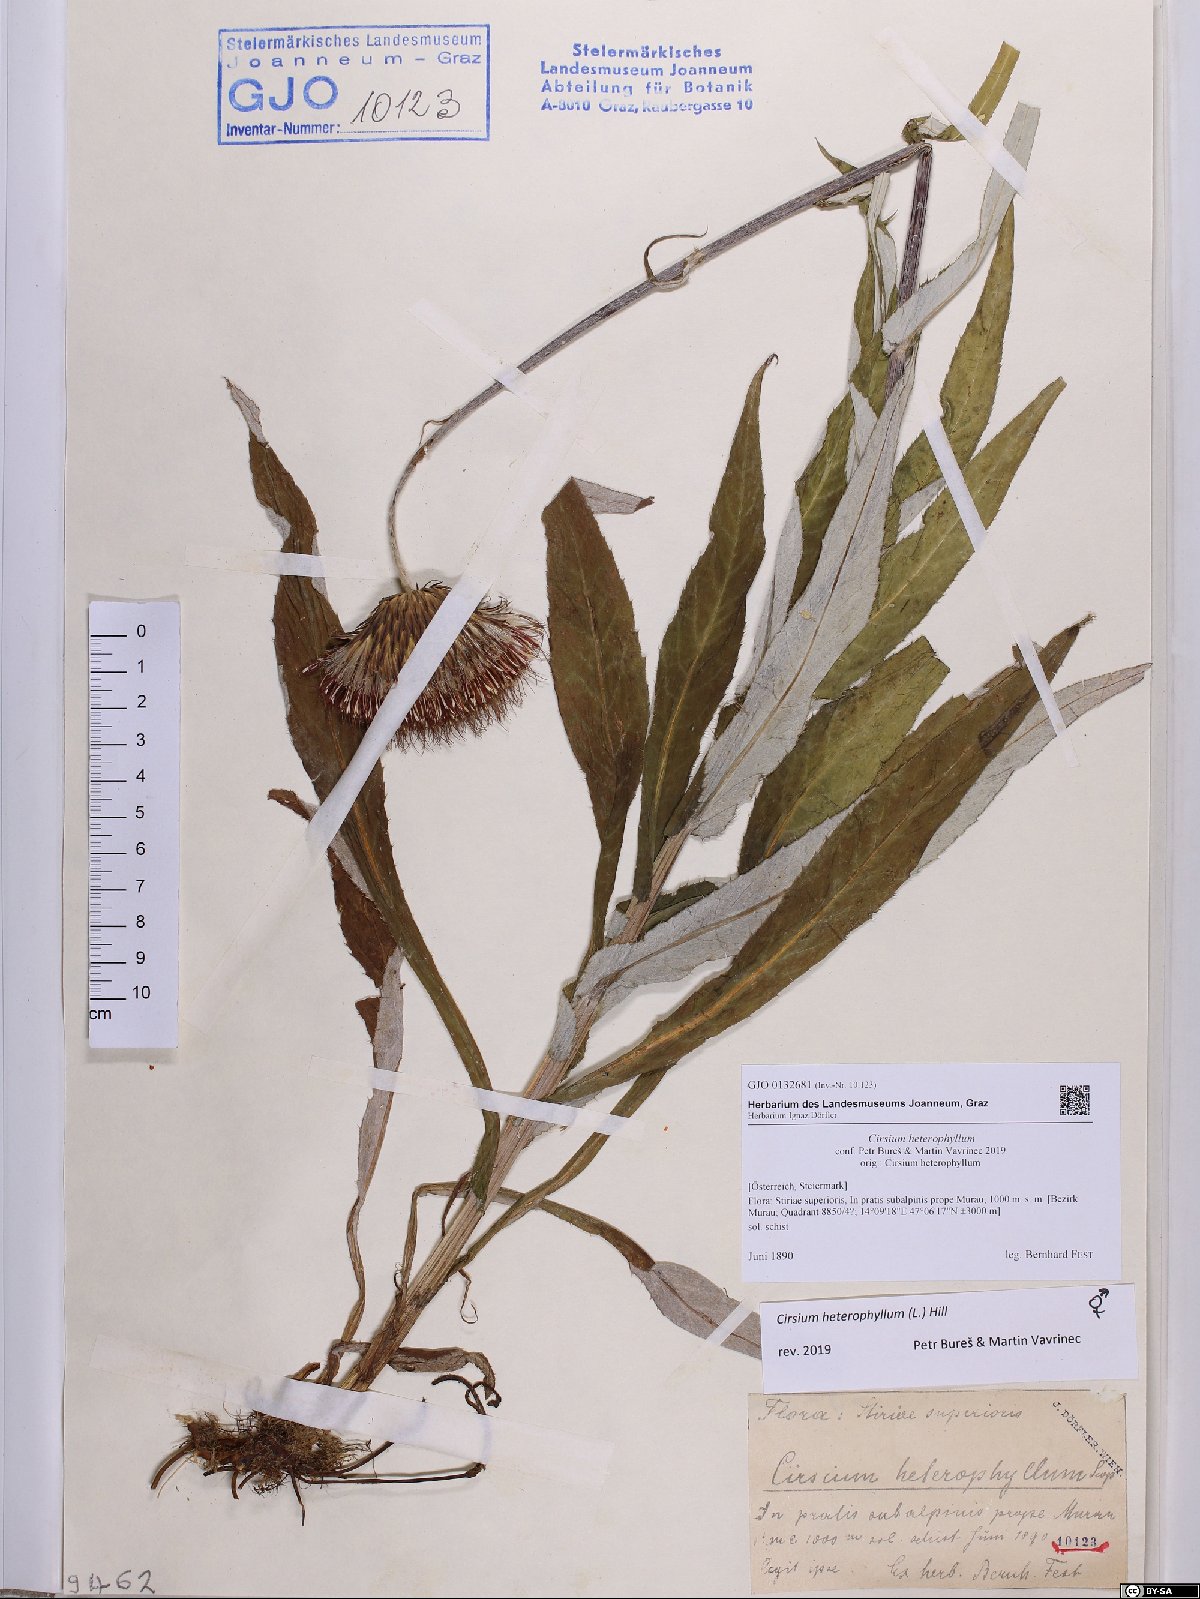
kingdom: Plantae
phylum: Tracheophyta
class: Magnoliopsida
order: Asterales
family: Asteraceae
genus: Cirsium
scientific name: Cirsium heterophyllum
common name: Melancholy thistle
